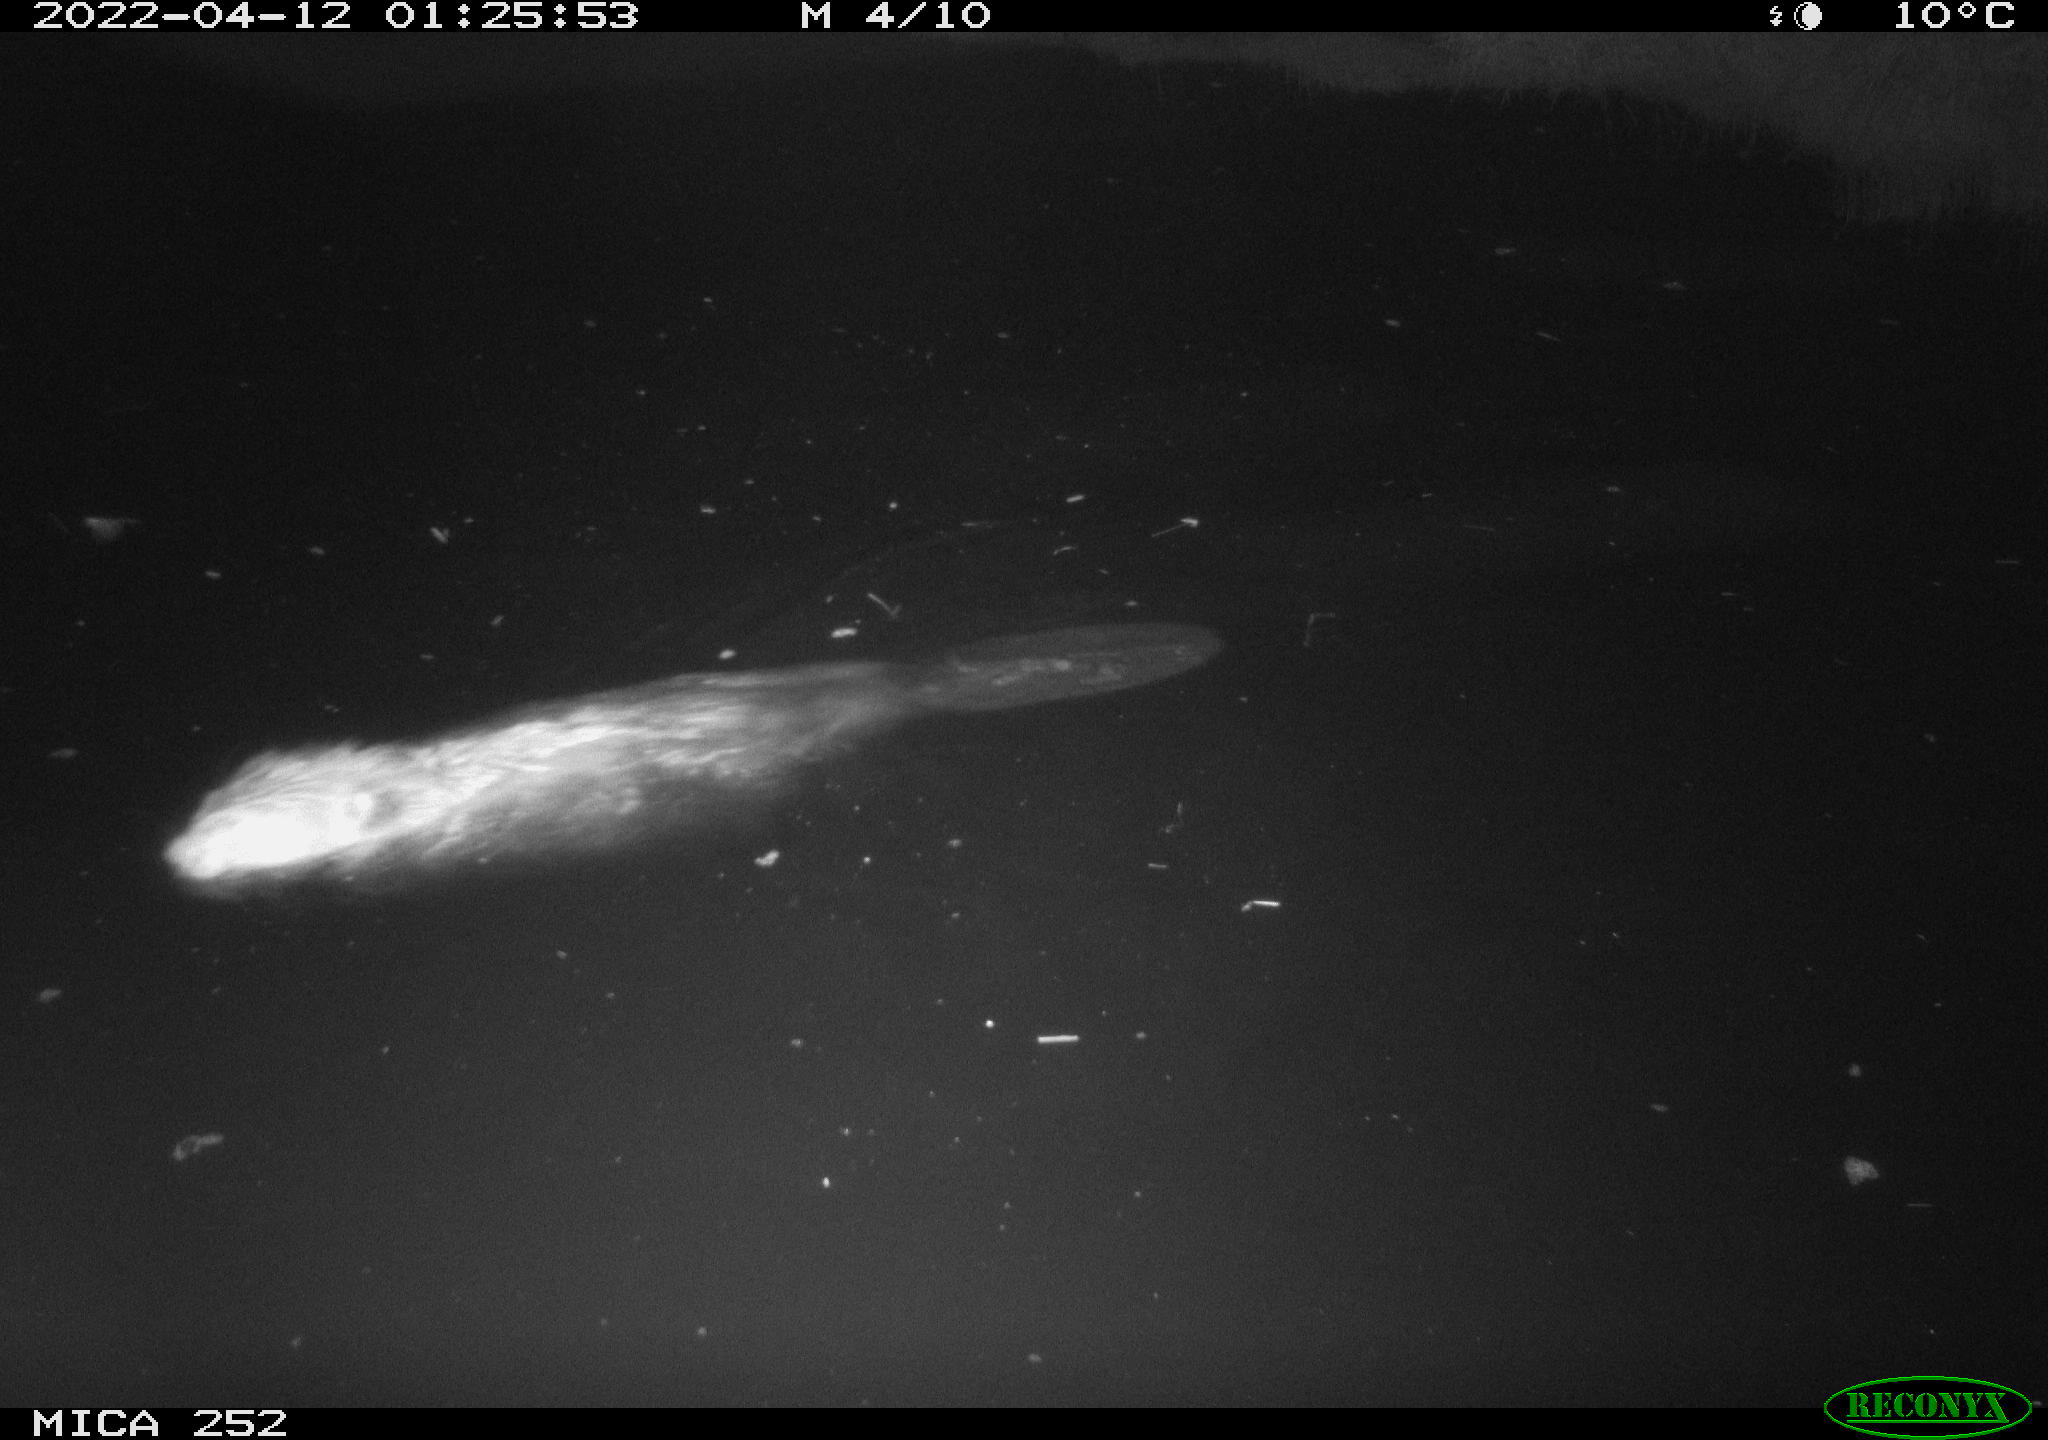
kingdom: Animalia
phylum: Chordata
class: Mammalia
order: Rodentia
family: Castoridae
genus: Castor
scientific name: Castor fiber
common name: Eurasian beaver
